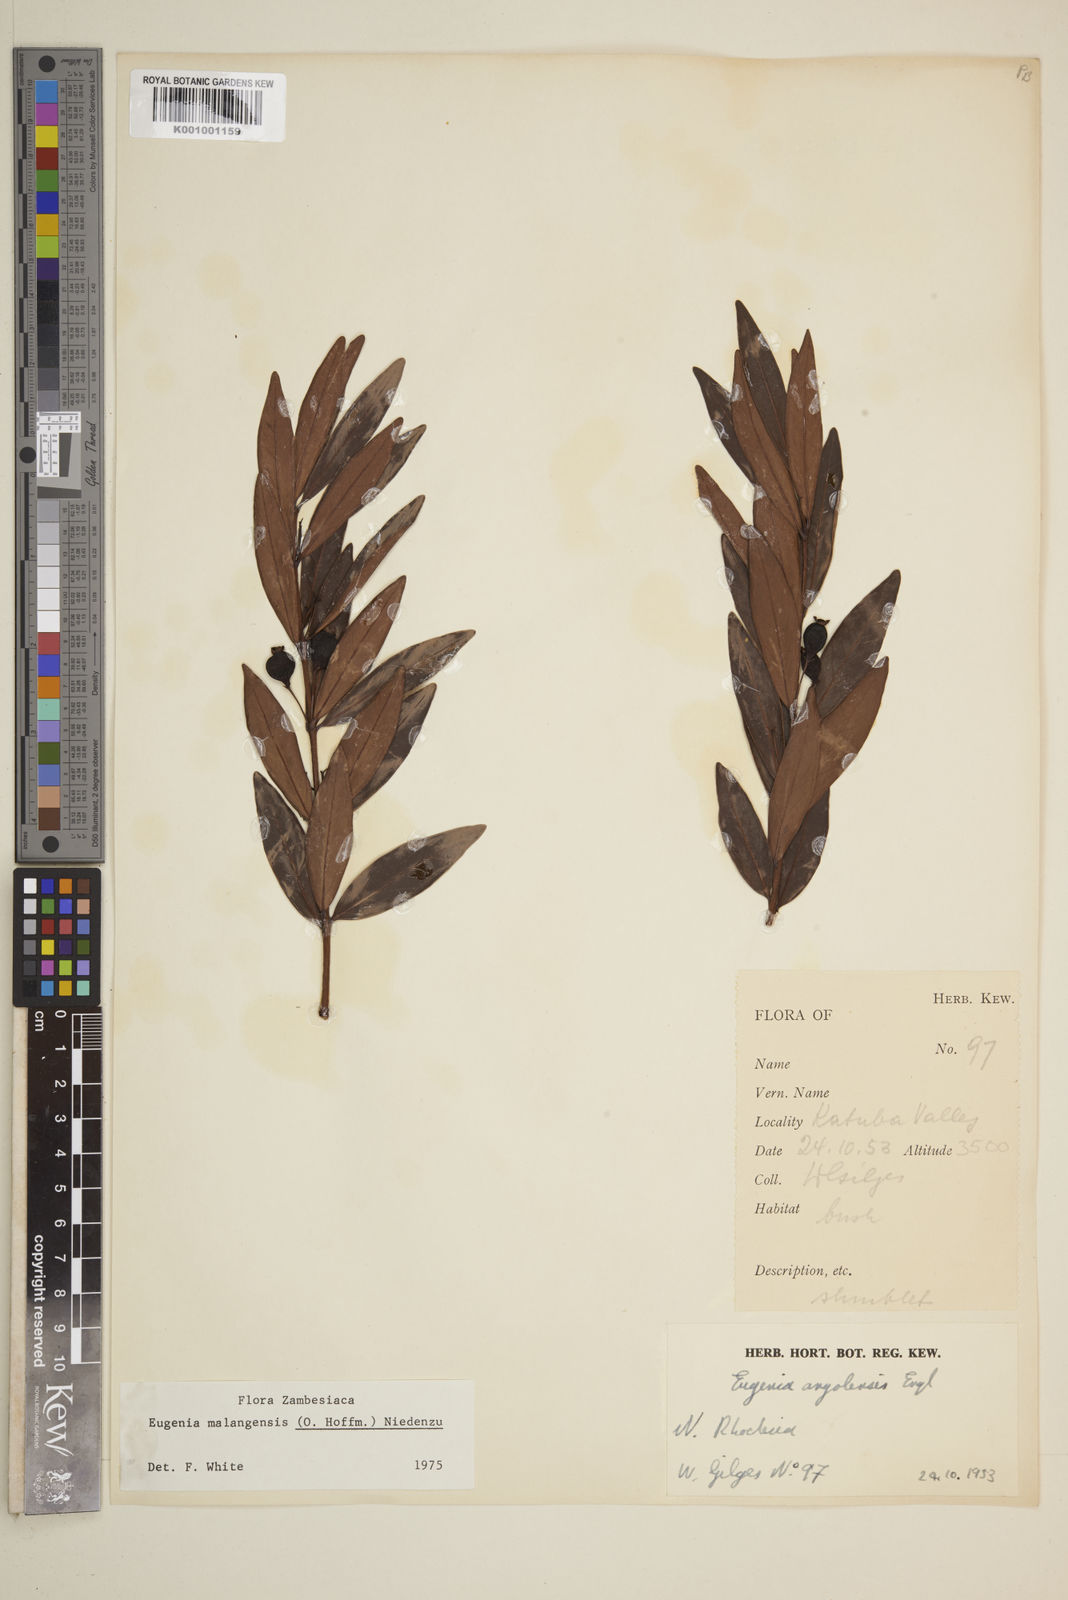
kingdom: Plantae
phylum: Tracheophyta
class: Magnoliopsida
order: Myrtales
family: Myrtaceae
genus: Eugenia
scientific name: Eugenia malangensis
